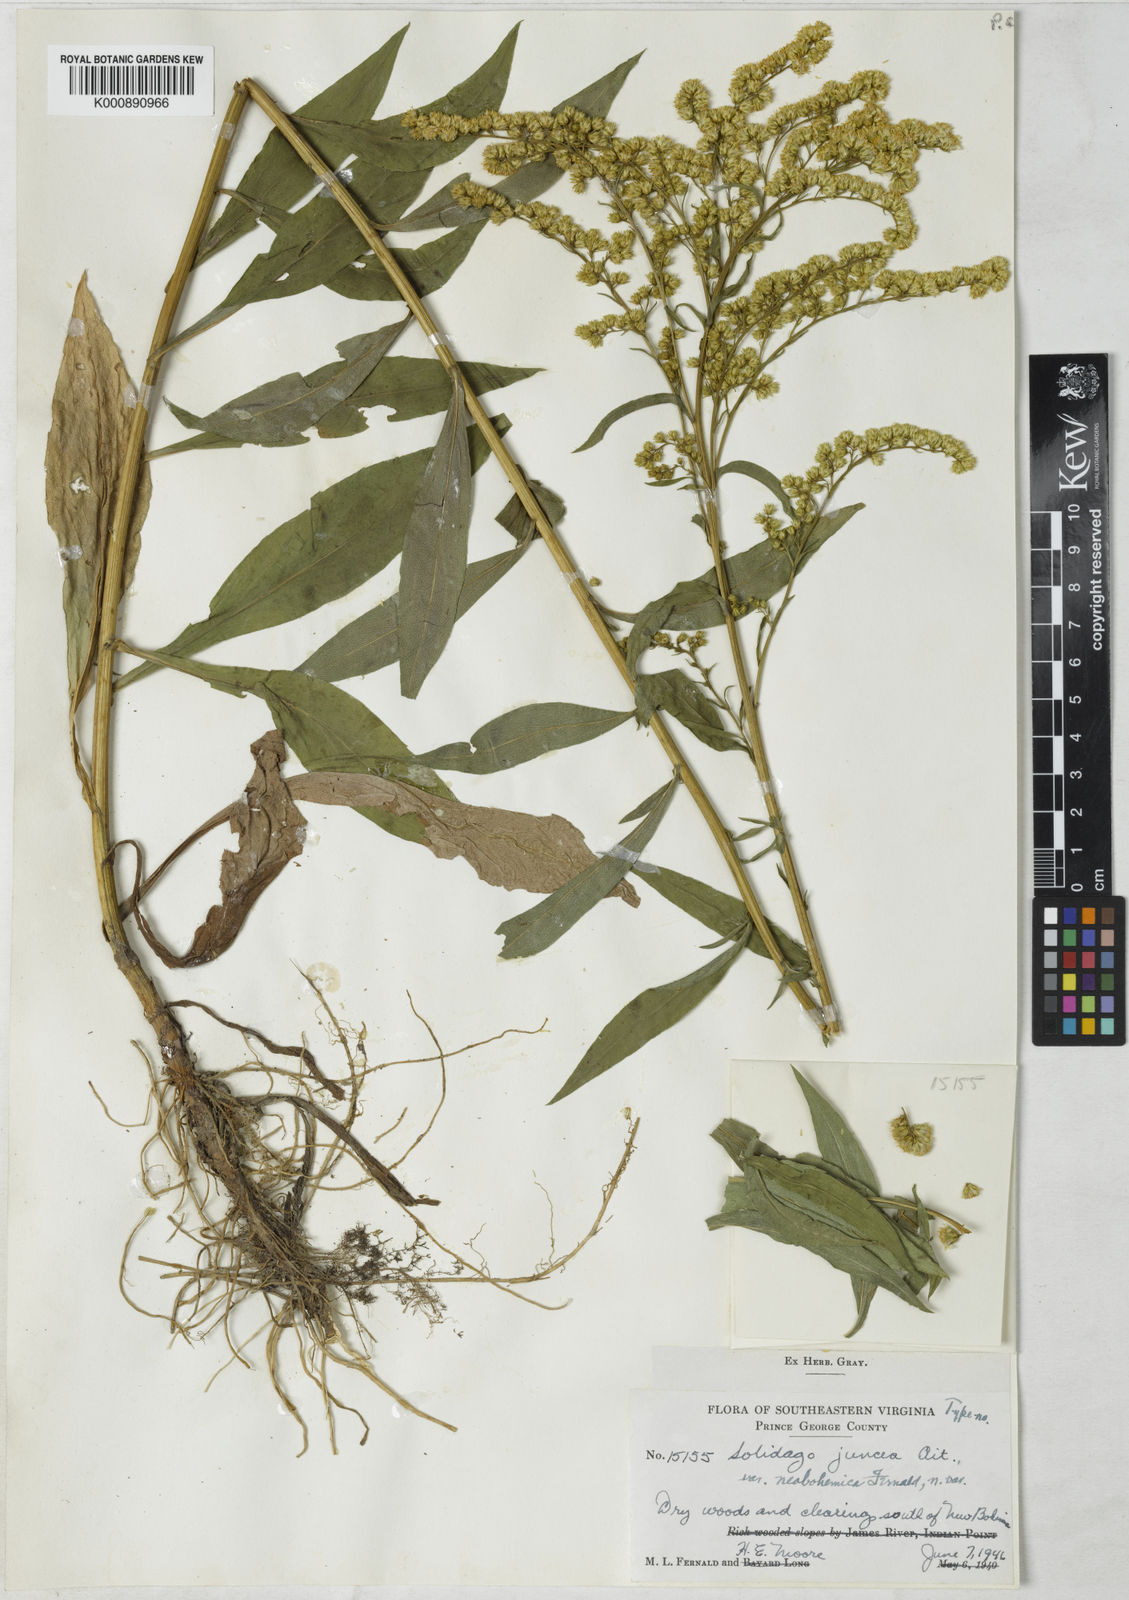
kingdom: Plantae
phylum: Tracheophyta
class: Magnoliopsida
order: Asterales
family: Asteraceae
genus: Solidago
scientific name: Solidago juncea
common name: Early goldenrod
